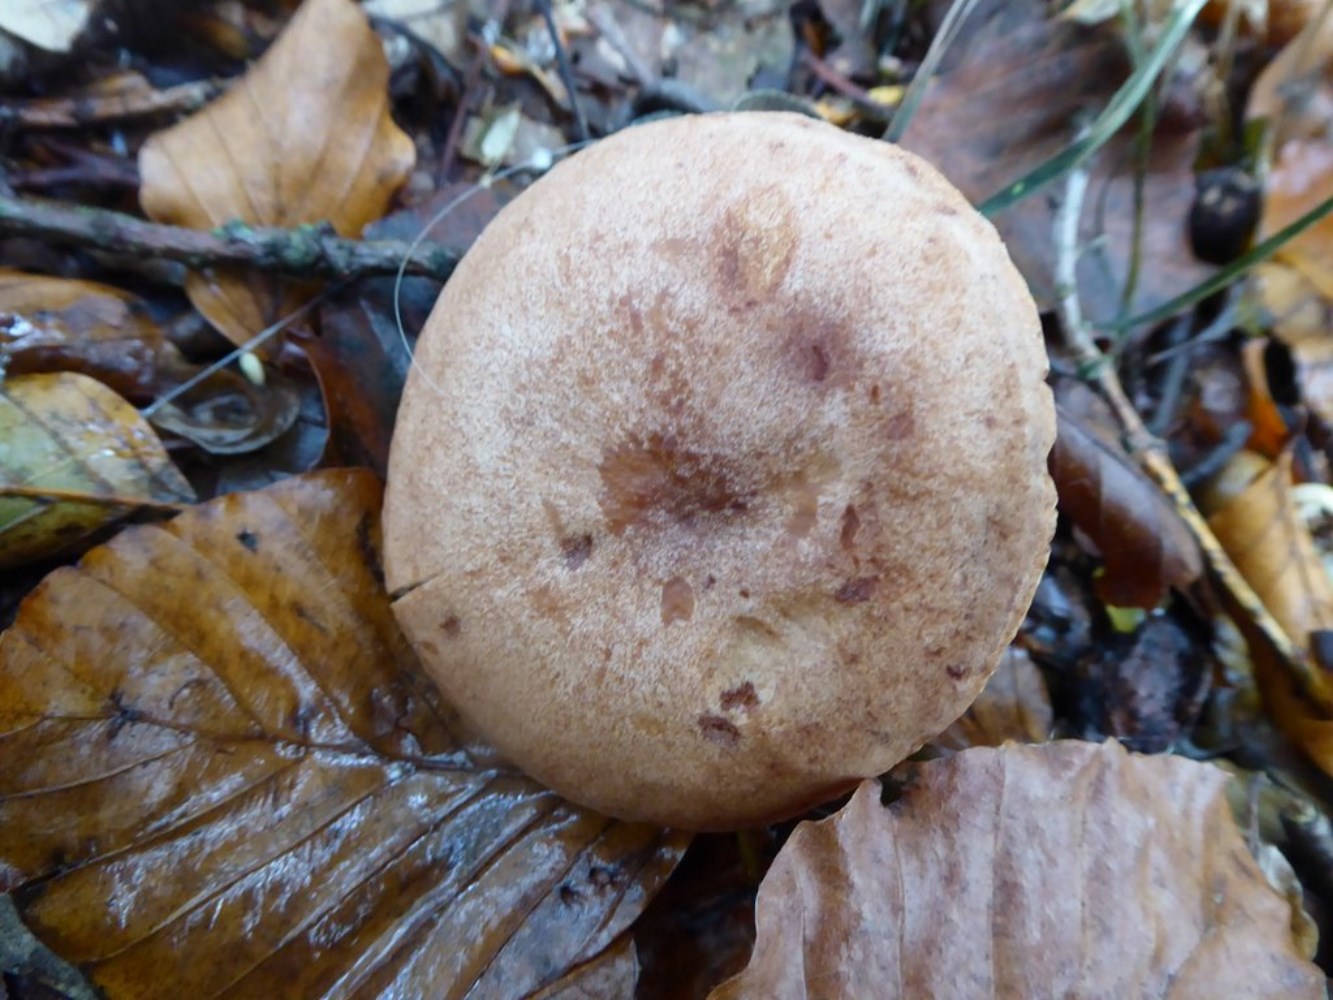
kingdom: Fungi
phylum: Basidiomycota
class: Agaricomycetes
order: Russulales
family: Russulaceae
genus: Lactarius
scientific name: Lactarius quietus
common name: ege-mælkehat
